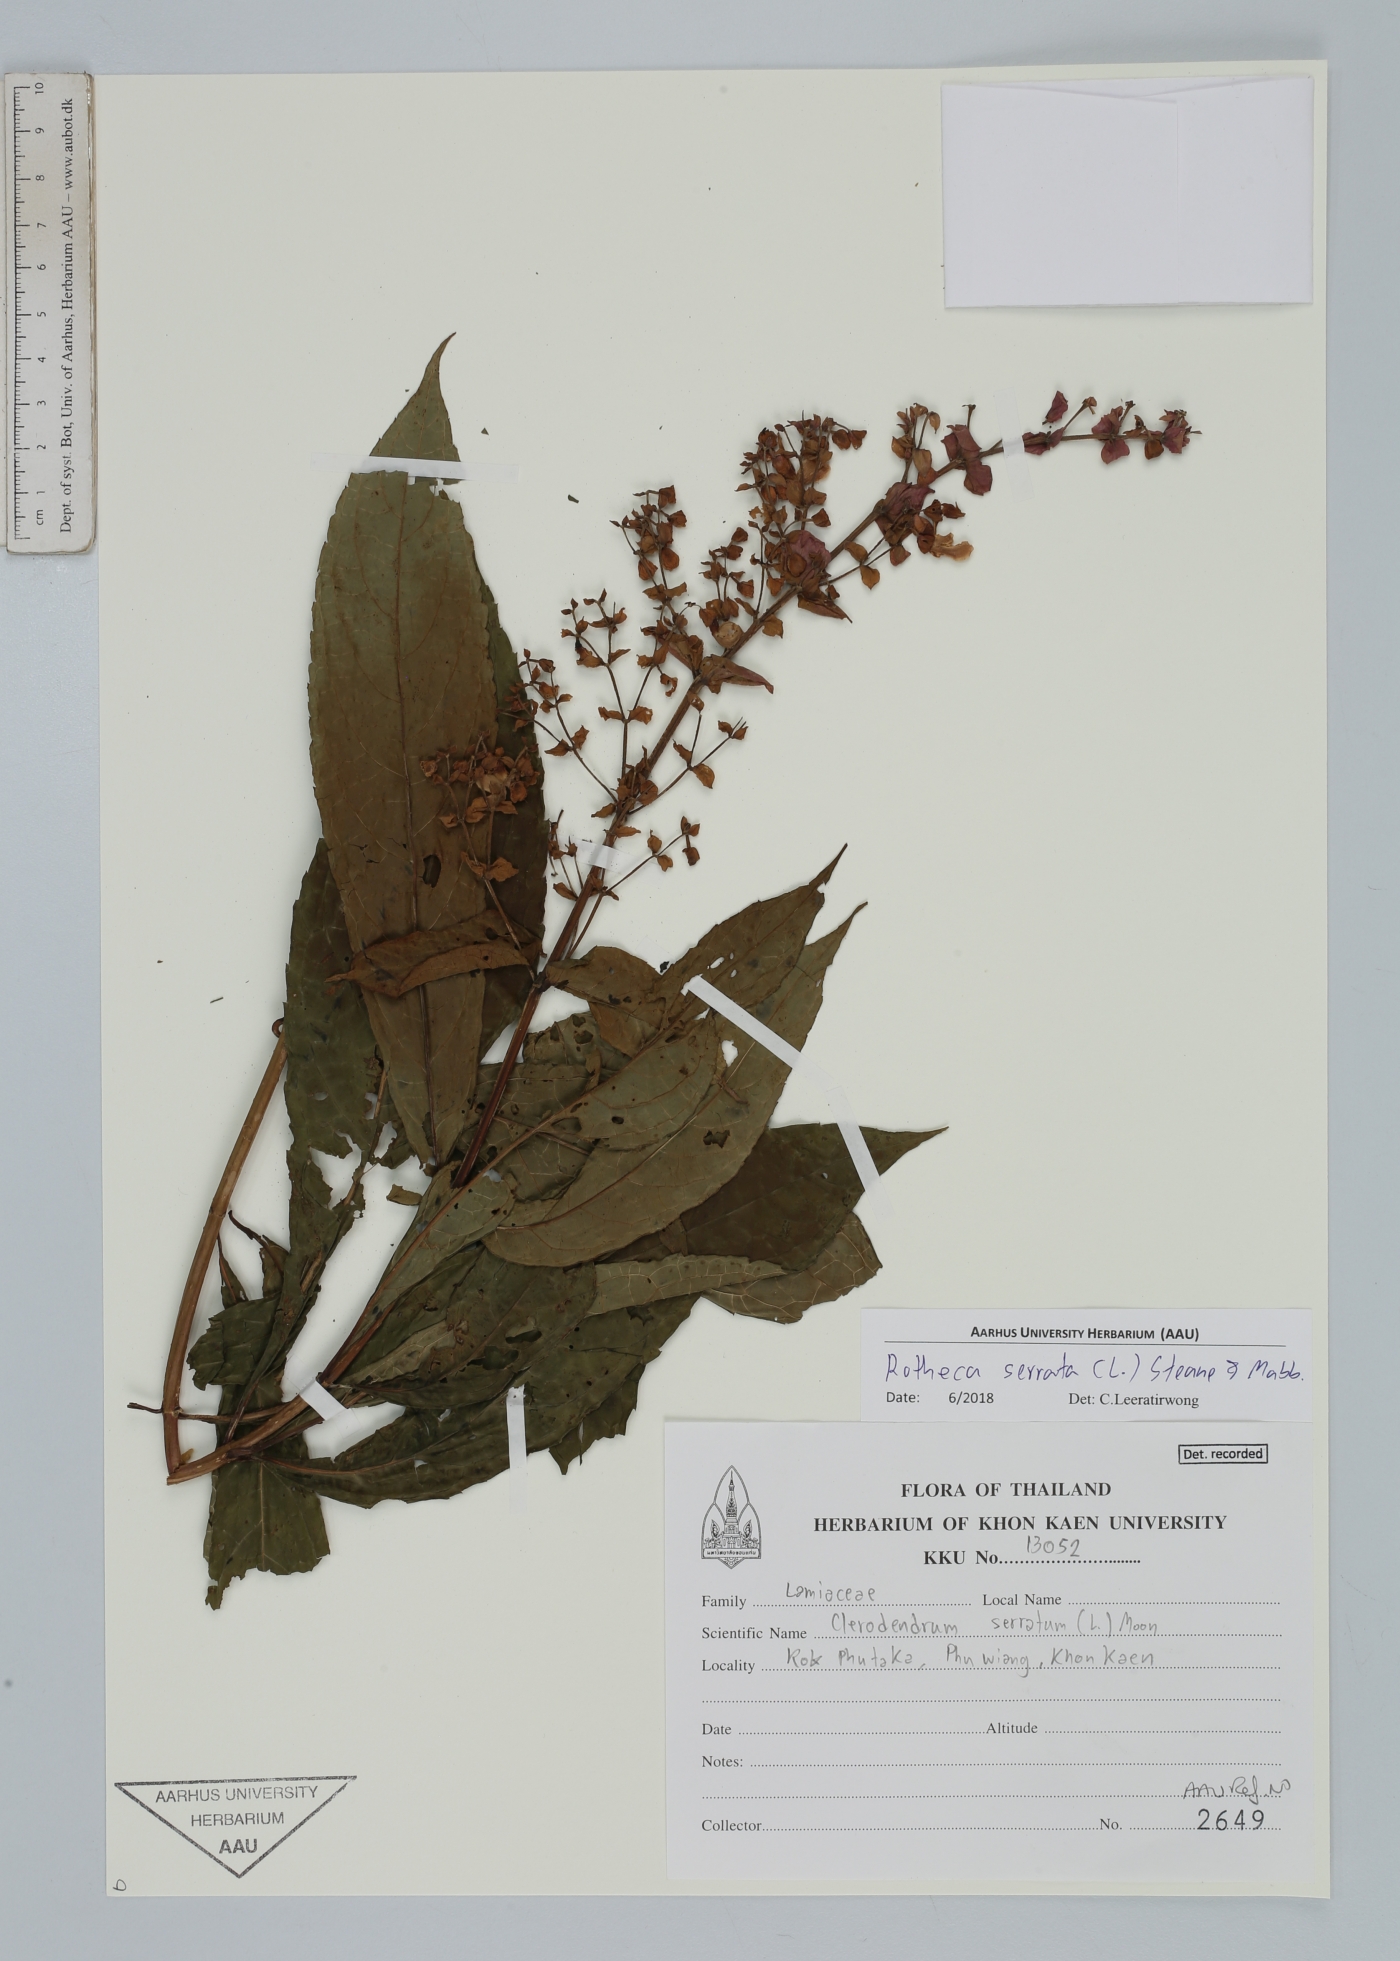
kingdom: Plantae
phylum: Tracheophyta
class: Magnoliopsida
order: Lamiales
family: Lamiaceae
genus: Rotheca
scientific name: Rotheca serrata
